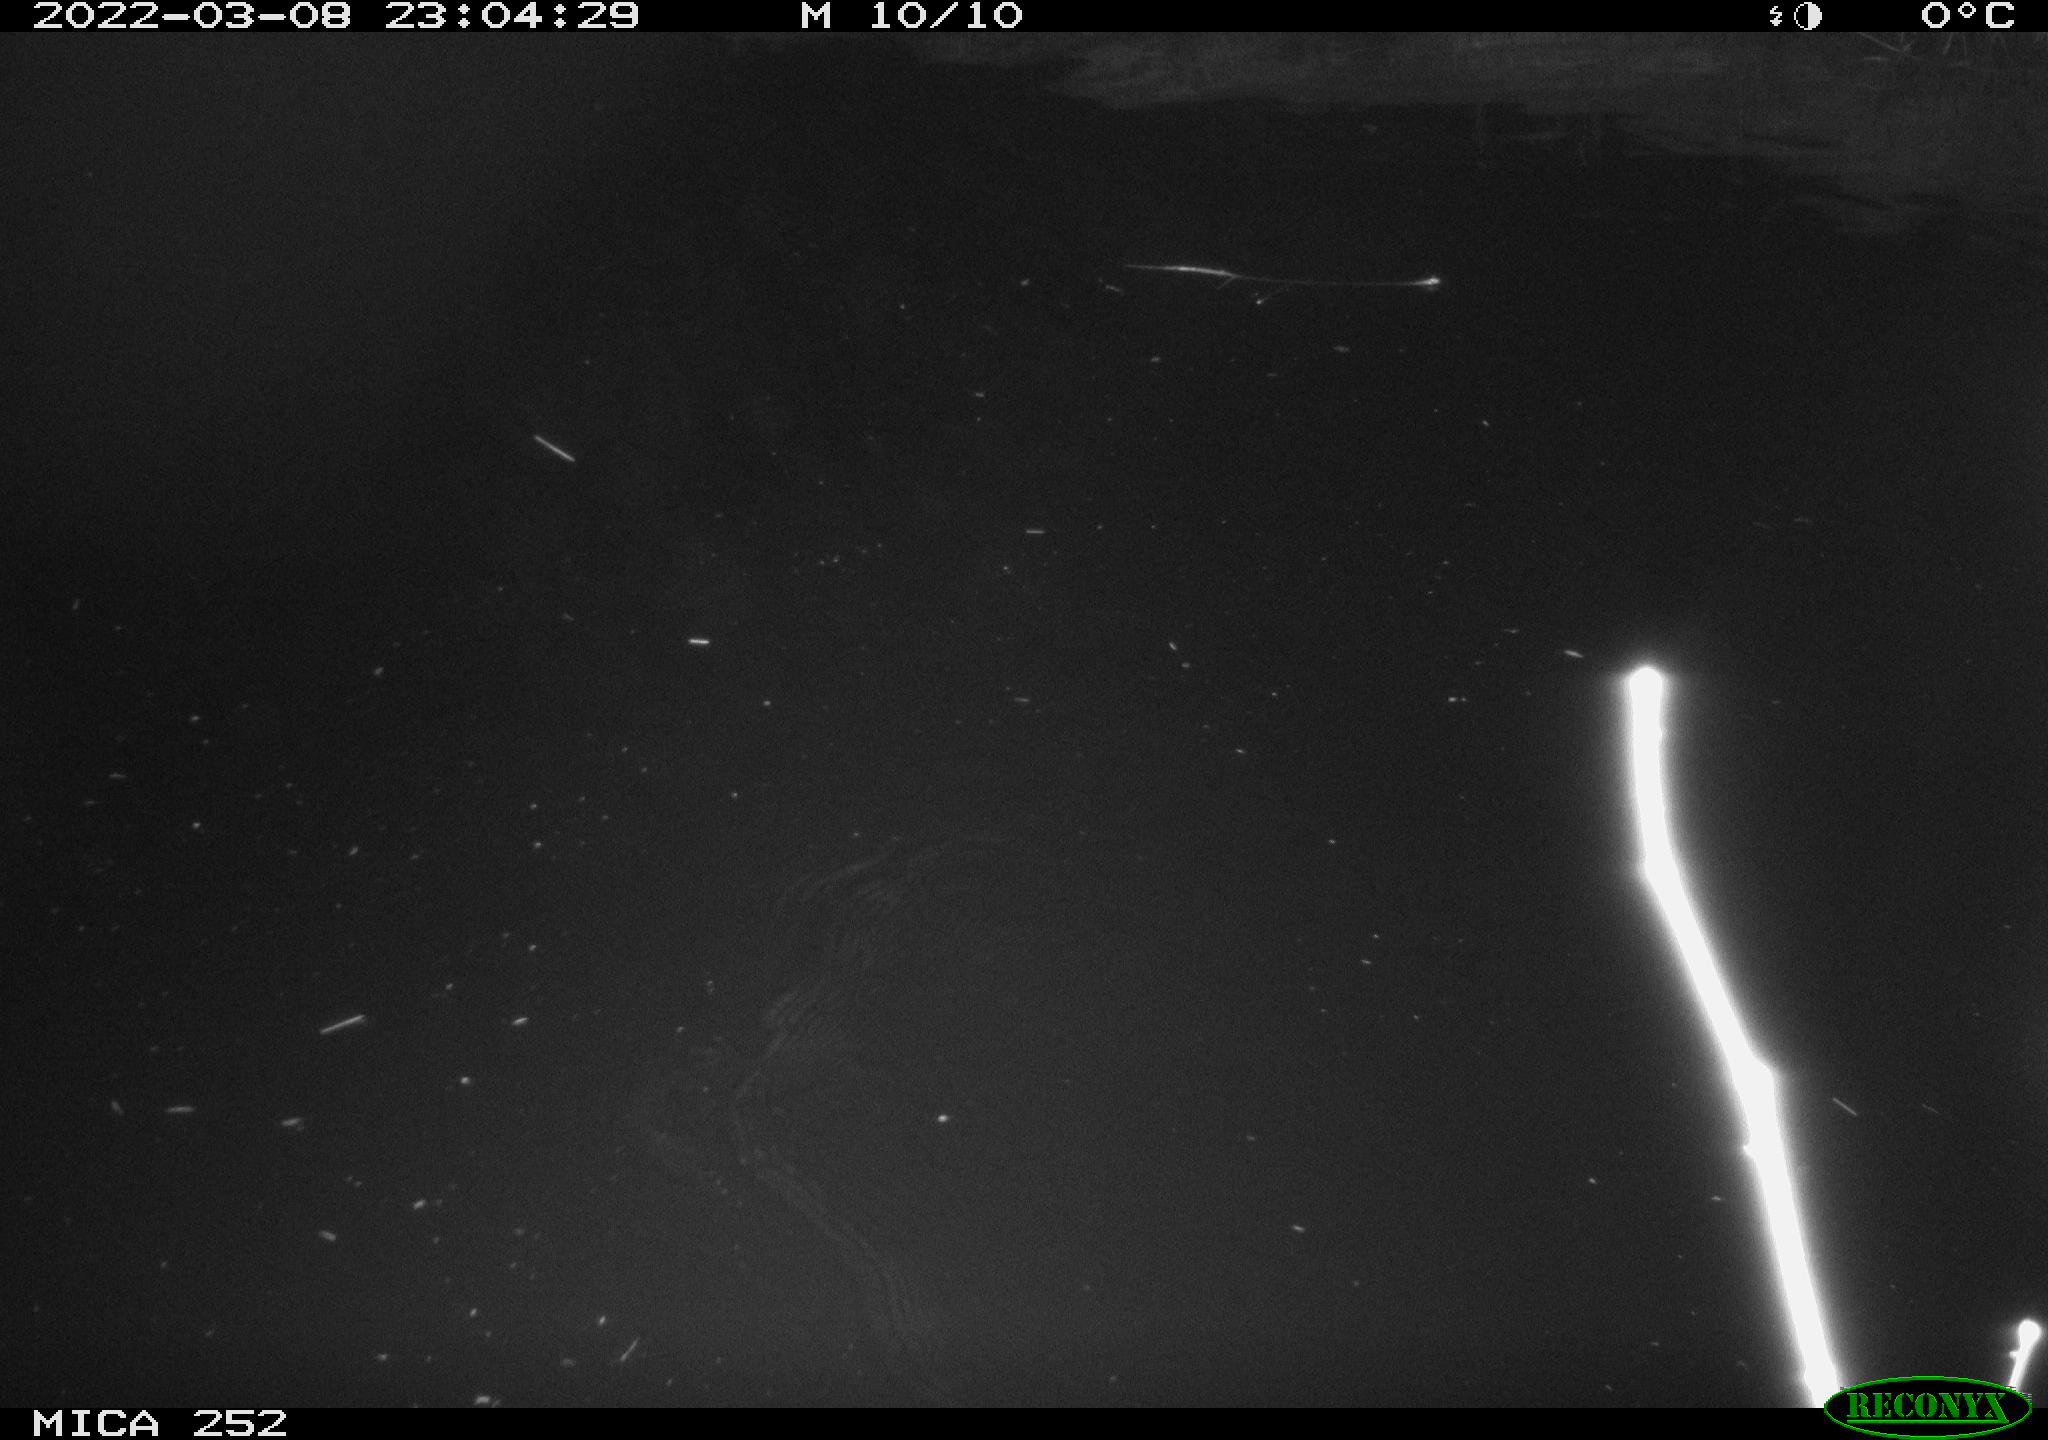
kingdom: Animalia
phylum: Chordata
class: Mammalia
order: Rodentia
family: Castoridae
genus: Castor
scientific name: Castor fiber
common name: Eurasian beaver
